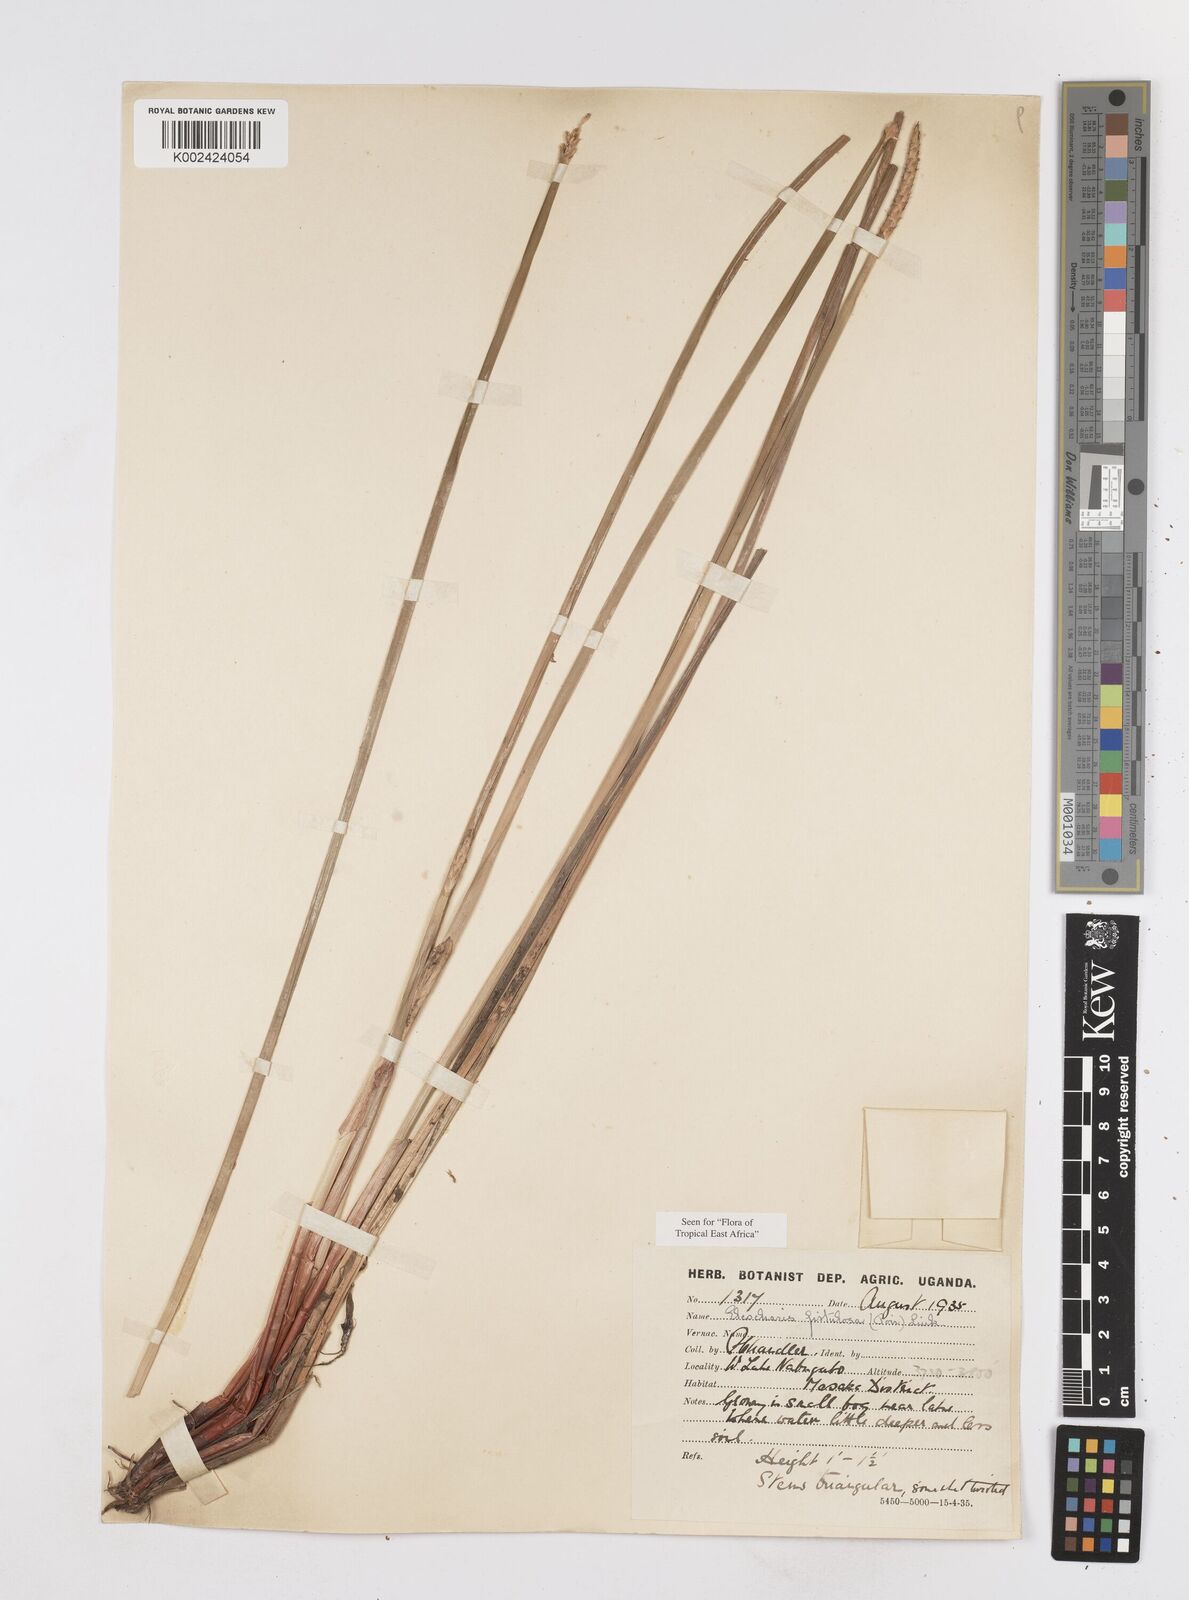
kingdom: Plantae
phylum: Tracheophyta
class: Liliopsida
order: Poales
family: Cyperaceae
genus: Eleocharis
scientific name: Eleocharis acutangula
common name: Acute spikerush
